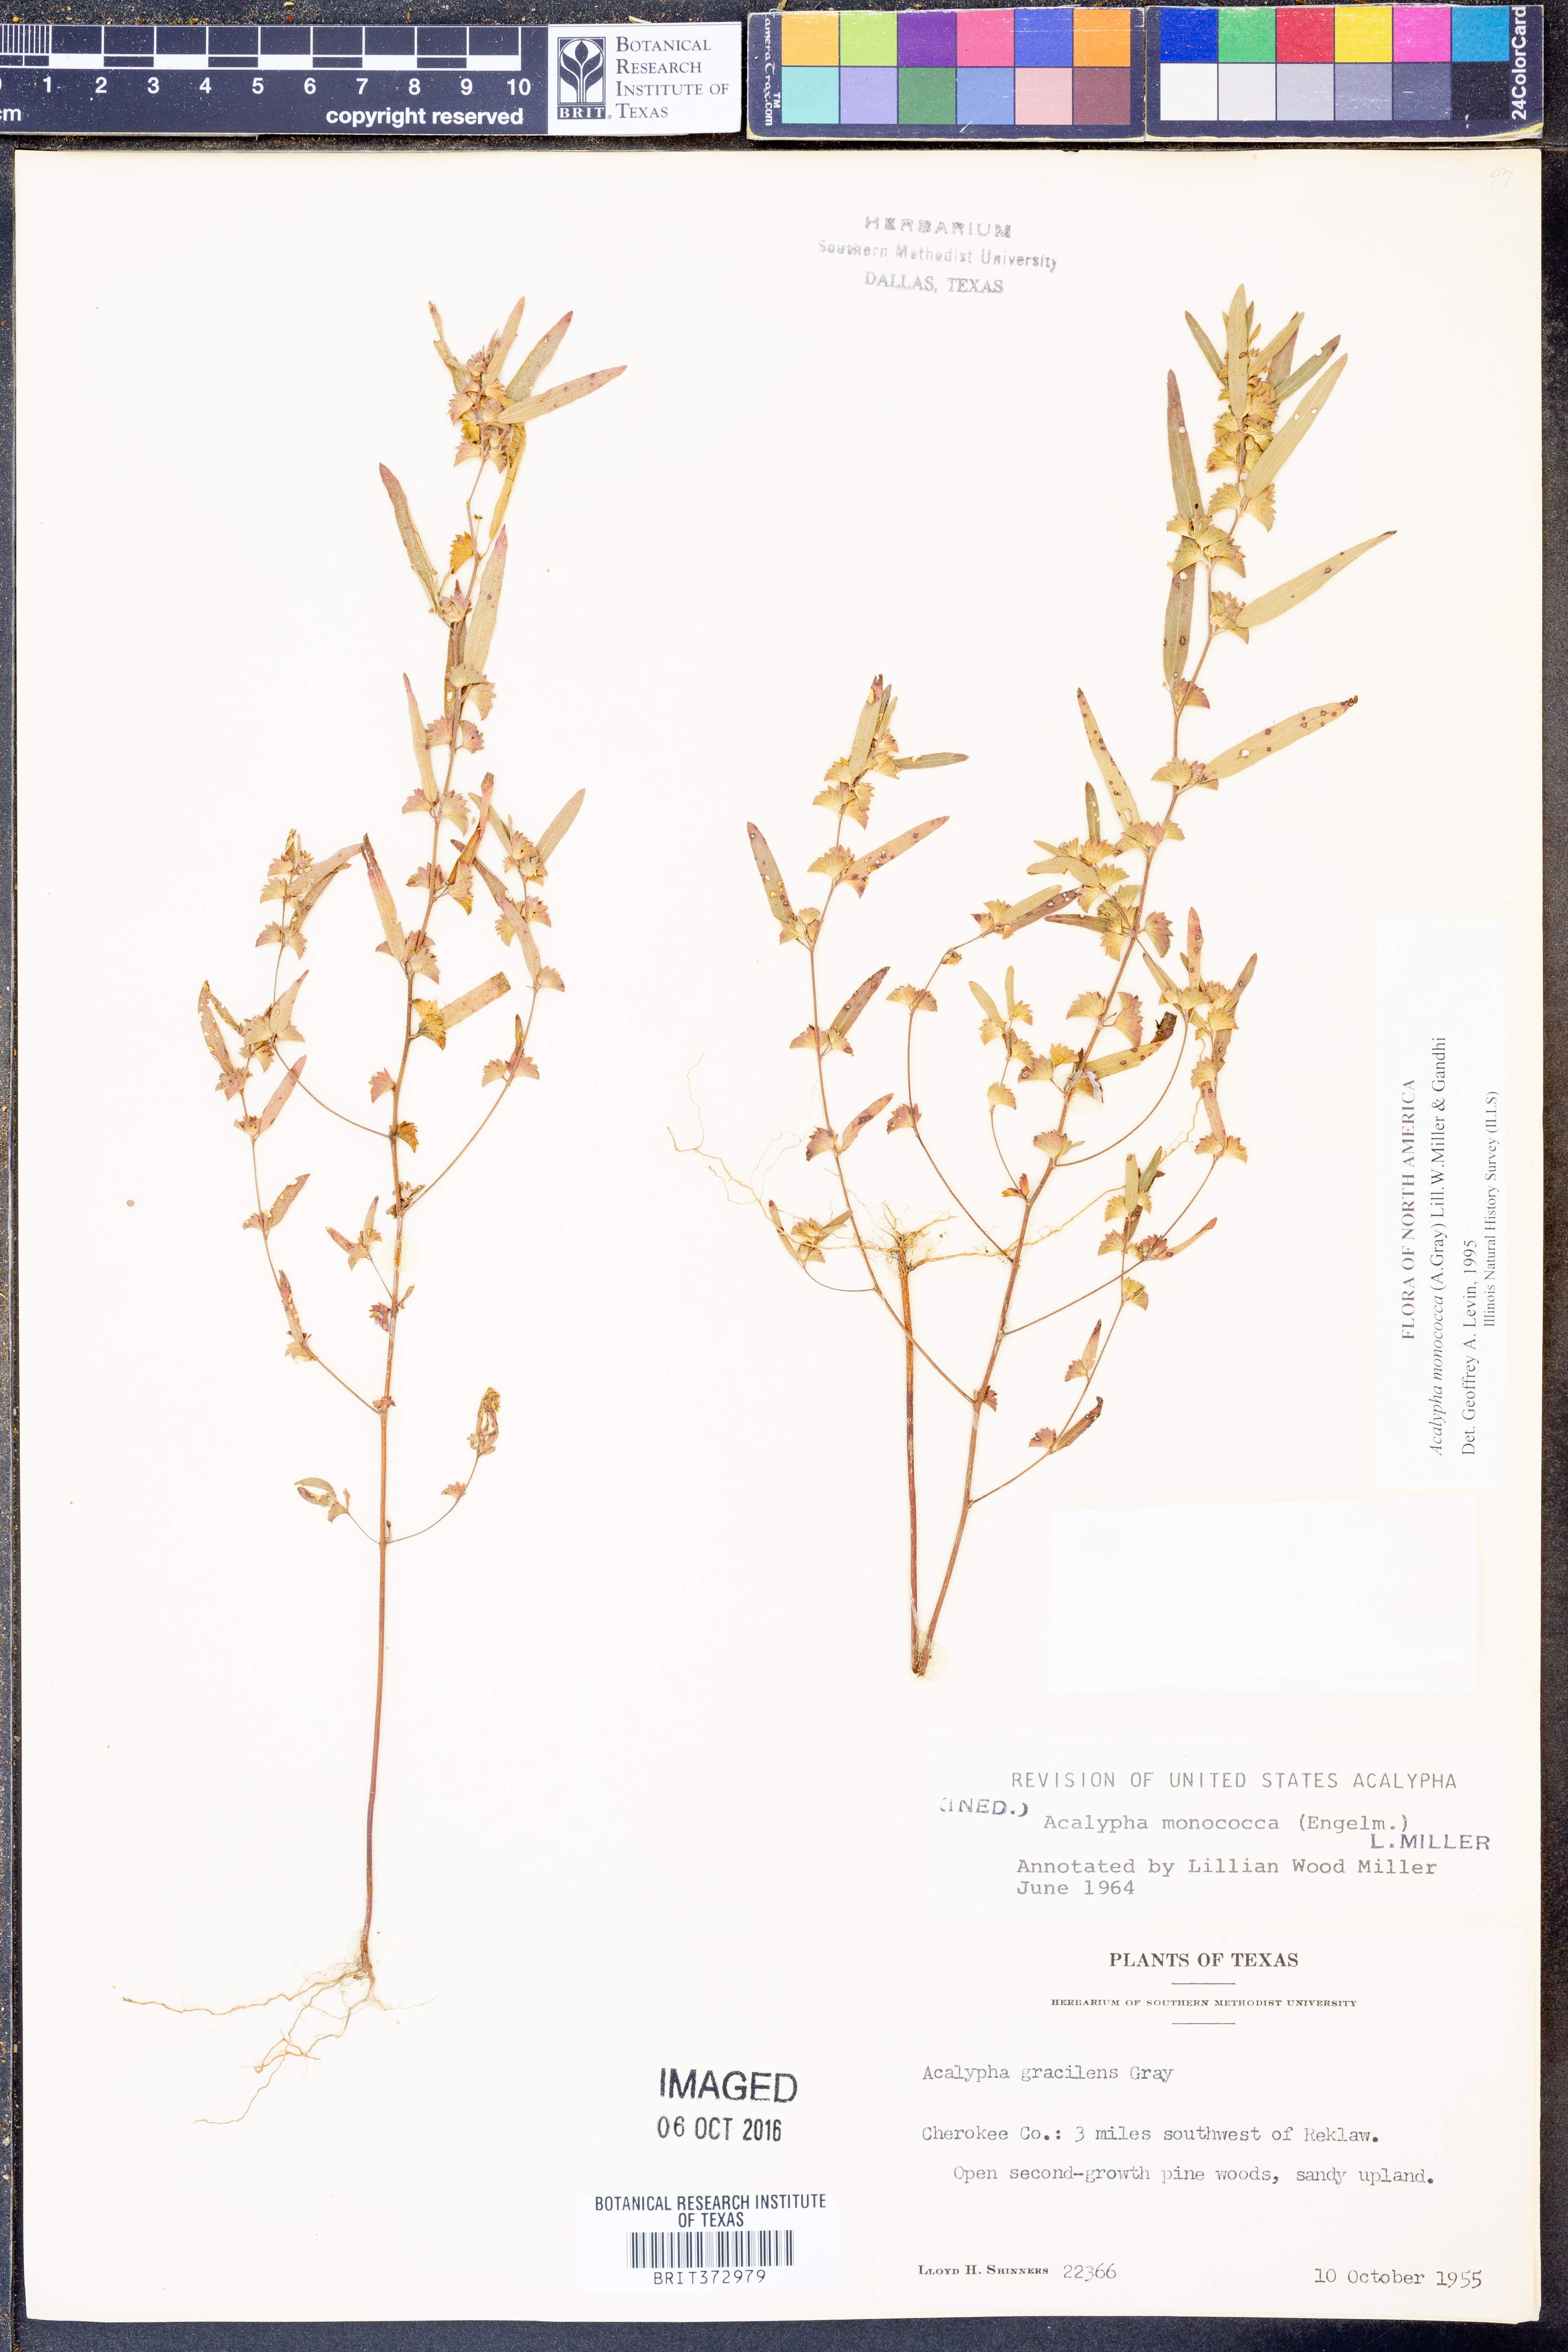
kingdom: Plantae
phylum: Tracheophyta
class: Magnoliopsida
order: Malpighiales
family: Euphorbiaceae
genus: Acalypha
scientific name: Acalypha monococca
